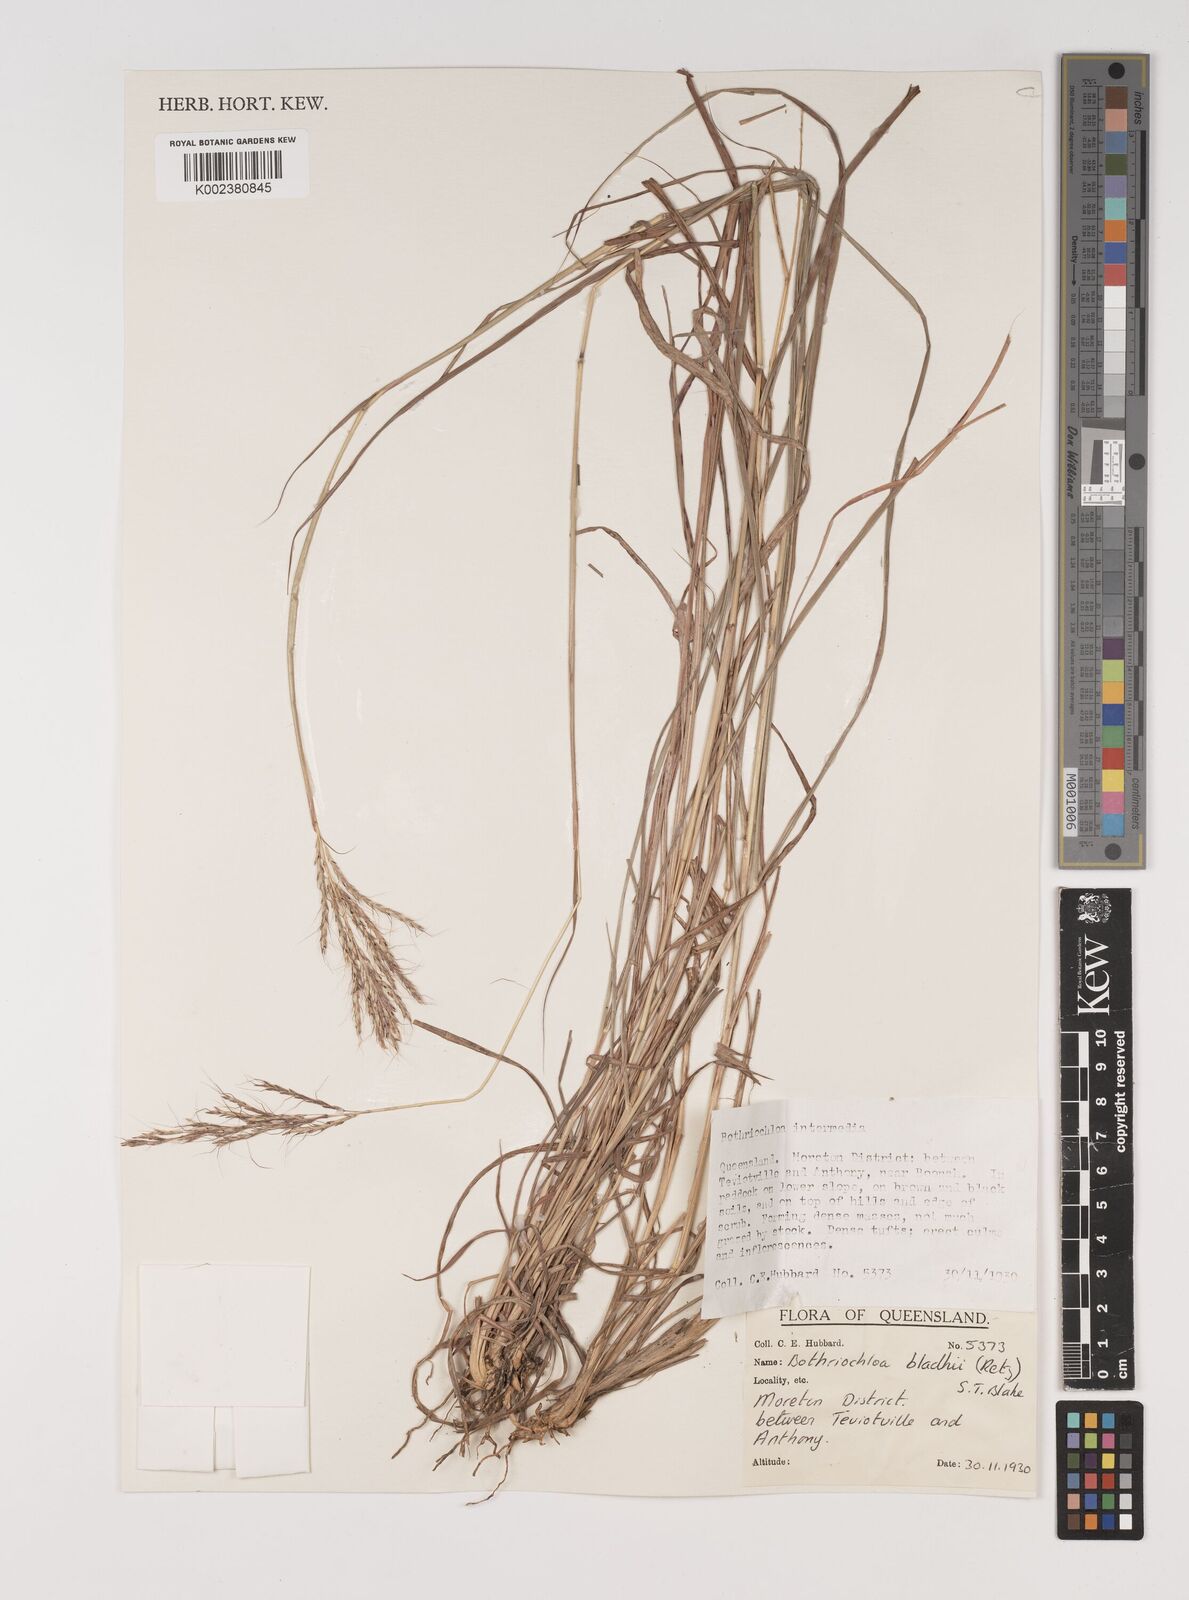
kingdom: Plantae
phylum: Tracheophyta
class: Liliopsida
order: Poales
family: Poaceae
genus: Bothriochloa
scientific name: Bothriochloa bladhii
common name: Caucasian bluestem
